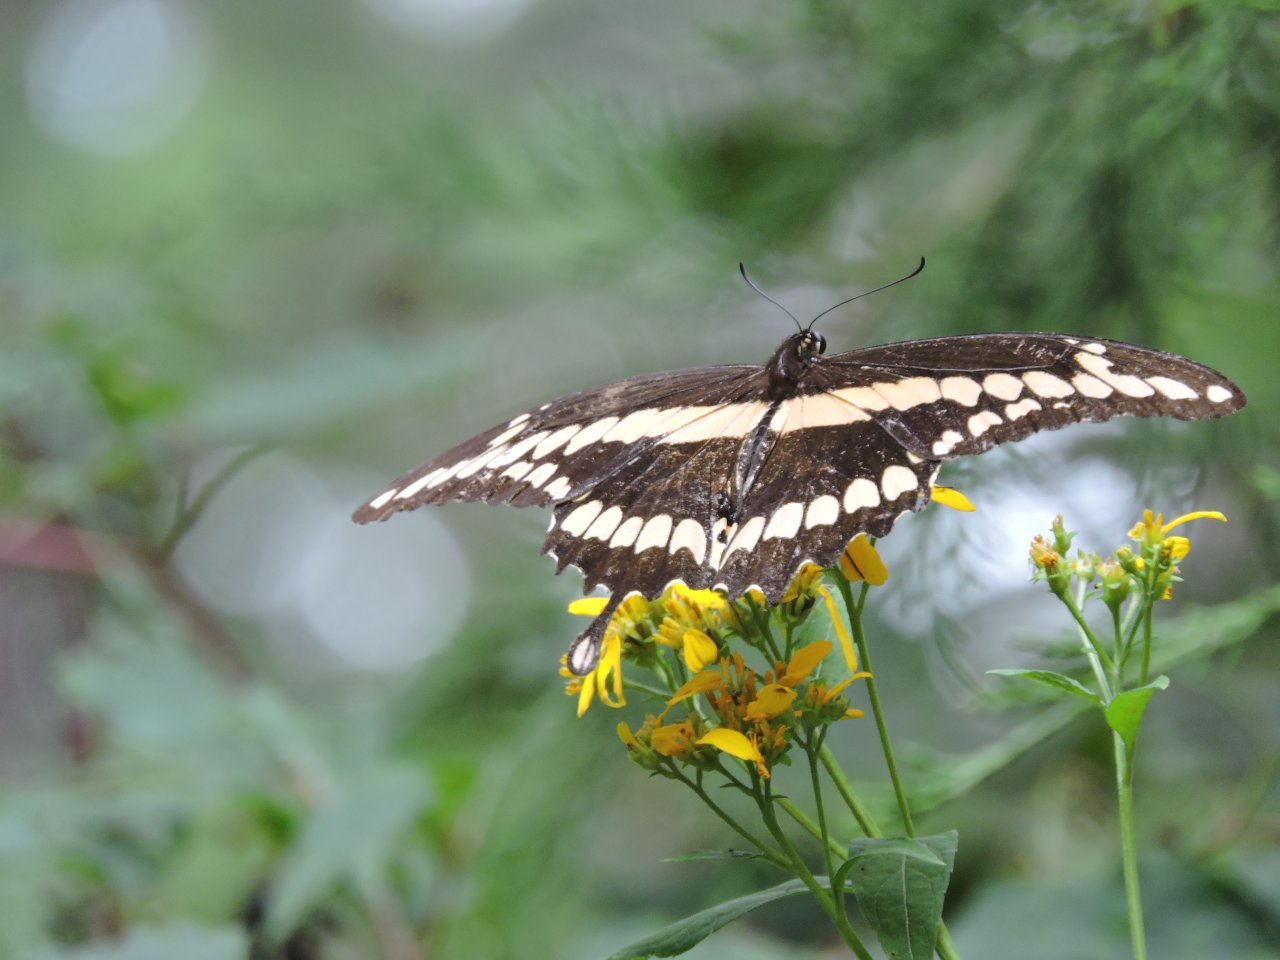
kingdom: Animalia
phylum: Arthropoda
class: Insecta
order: Lepidoptera
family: Papilionidae
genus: Papilio
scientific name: Papilio cresphontes
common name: Eastern Giant Swallowtail
